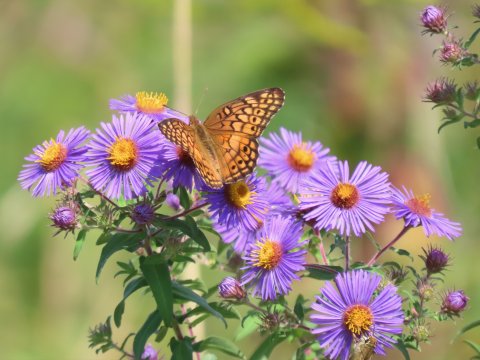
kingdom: Animalia
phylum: Arthropoda
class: Insecta
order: Lepidoptera
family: Nymphalidae
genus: Euptoieta
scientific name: Euptoieta claudia
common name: Variegated Fritillary
